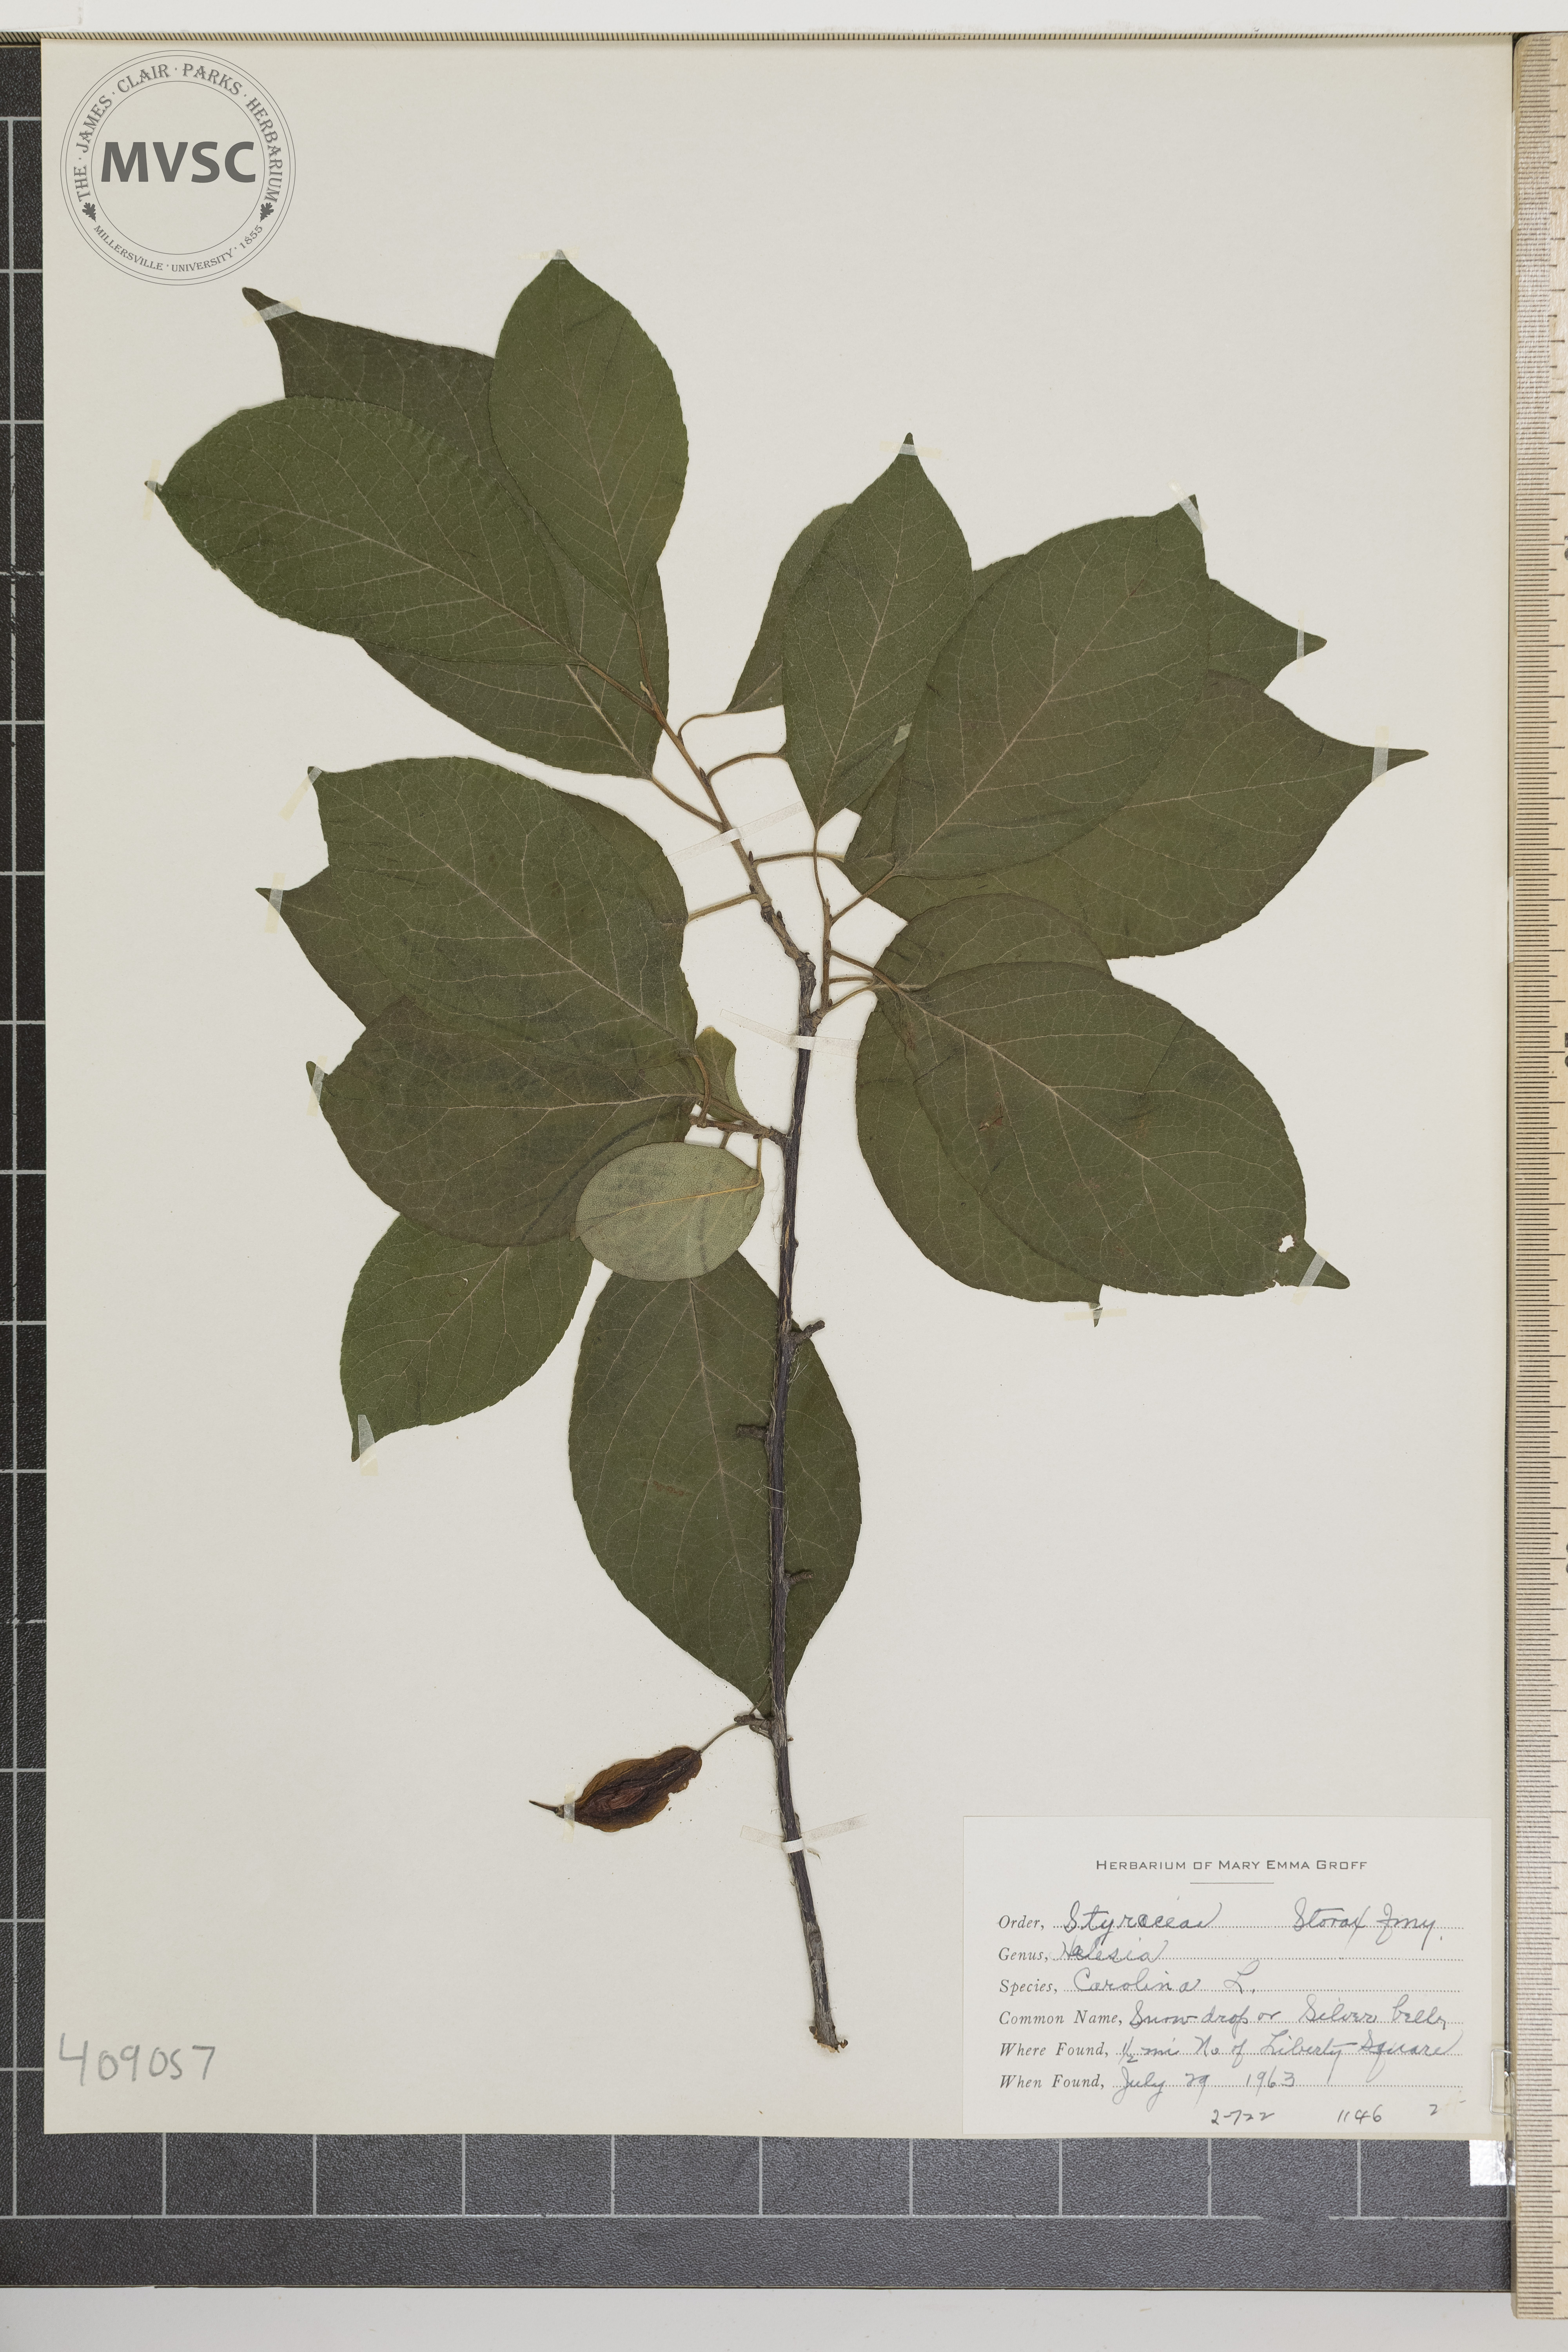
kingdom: Plantae
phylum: Tracheophyta
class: Magnoliopsida
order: Ericales
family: Styracaceae
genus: Halesia
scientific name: Halesia carolina
